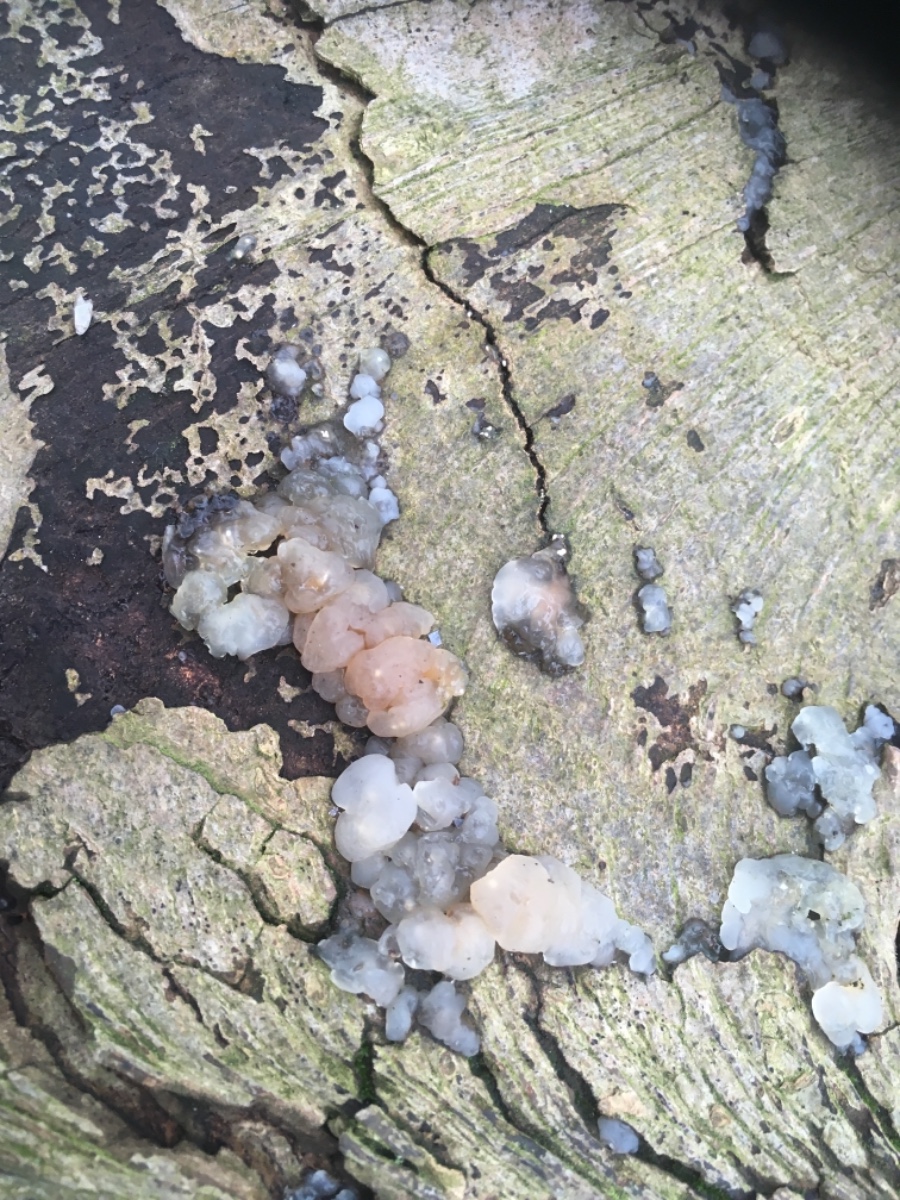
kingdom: Fungi
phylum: Basidiomycota
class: Agaricomycetes
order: Auriculariales
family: Hyaloriaceae
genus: Myxarium
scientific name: Myxarium
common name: bævretop
